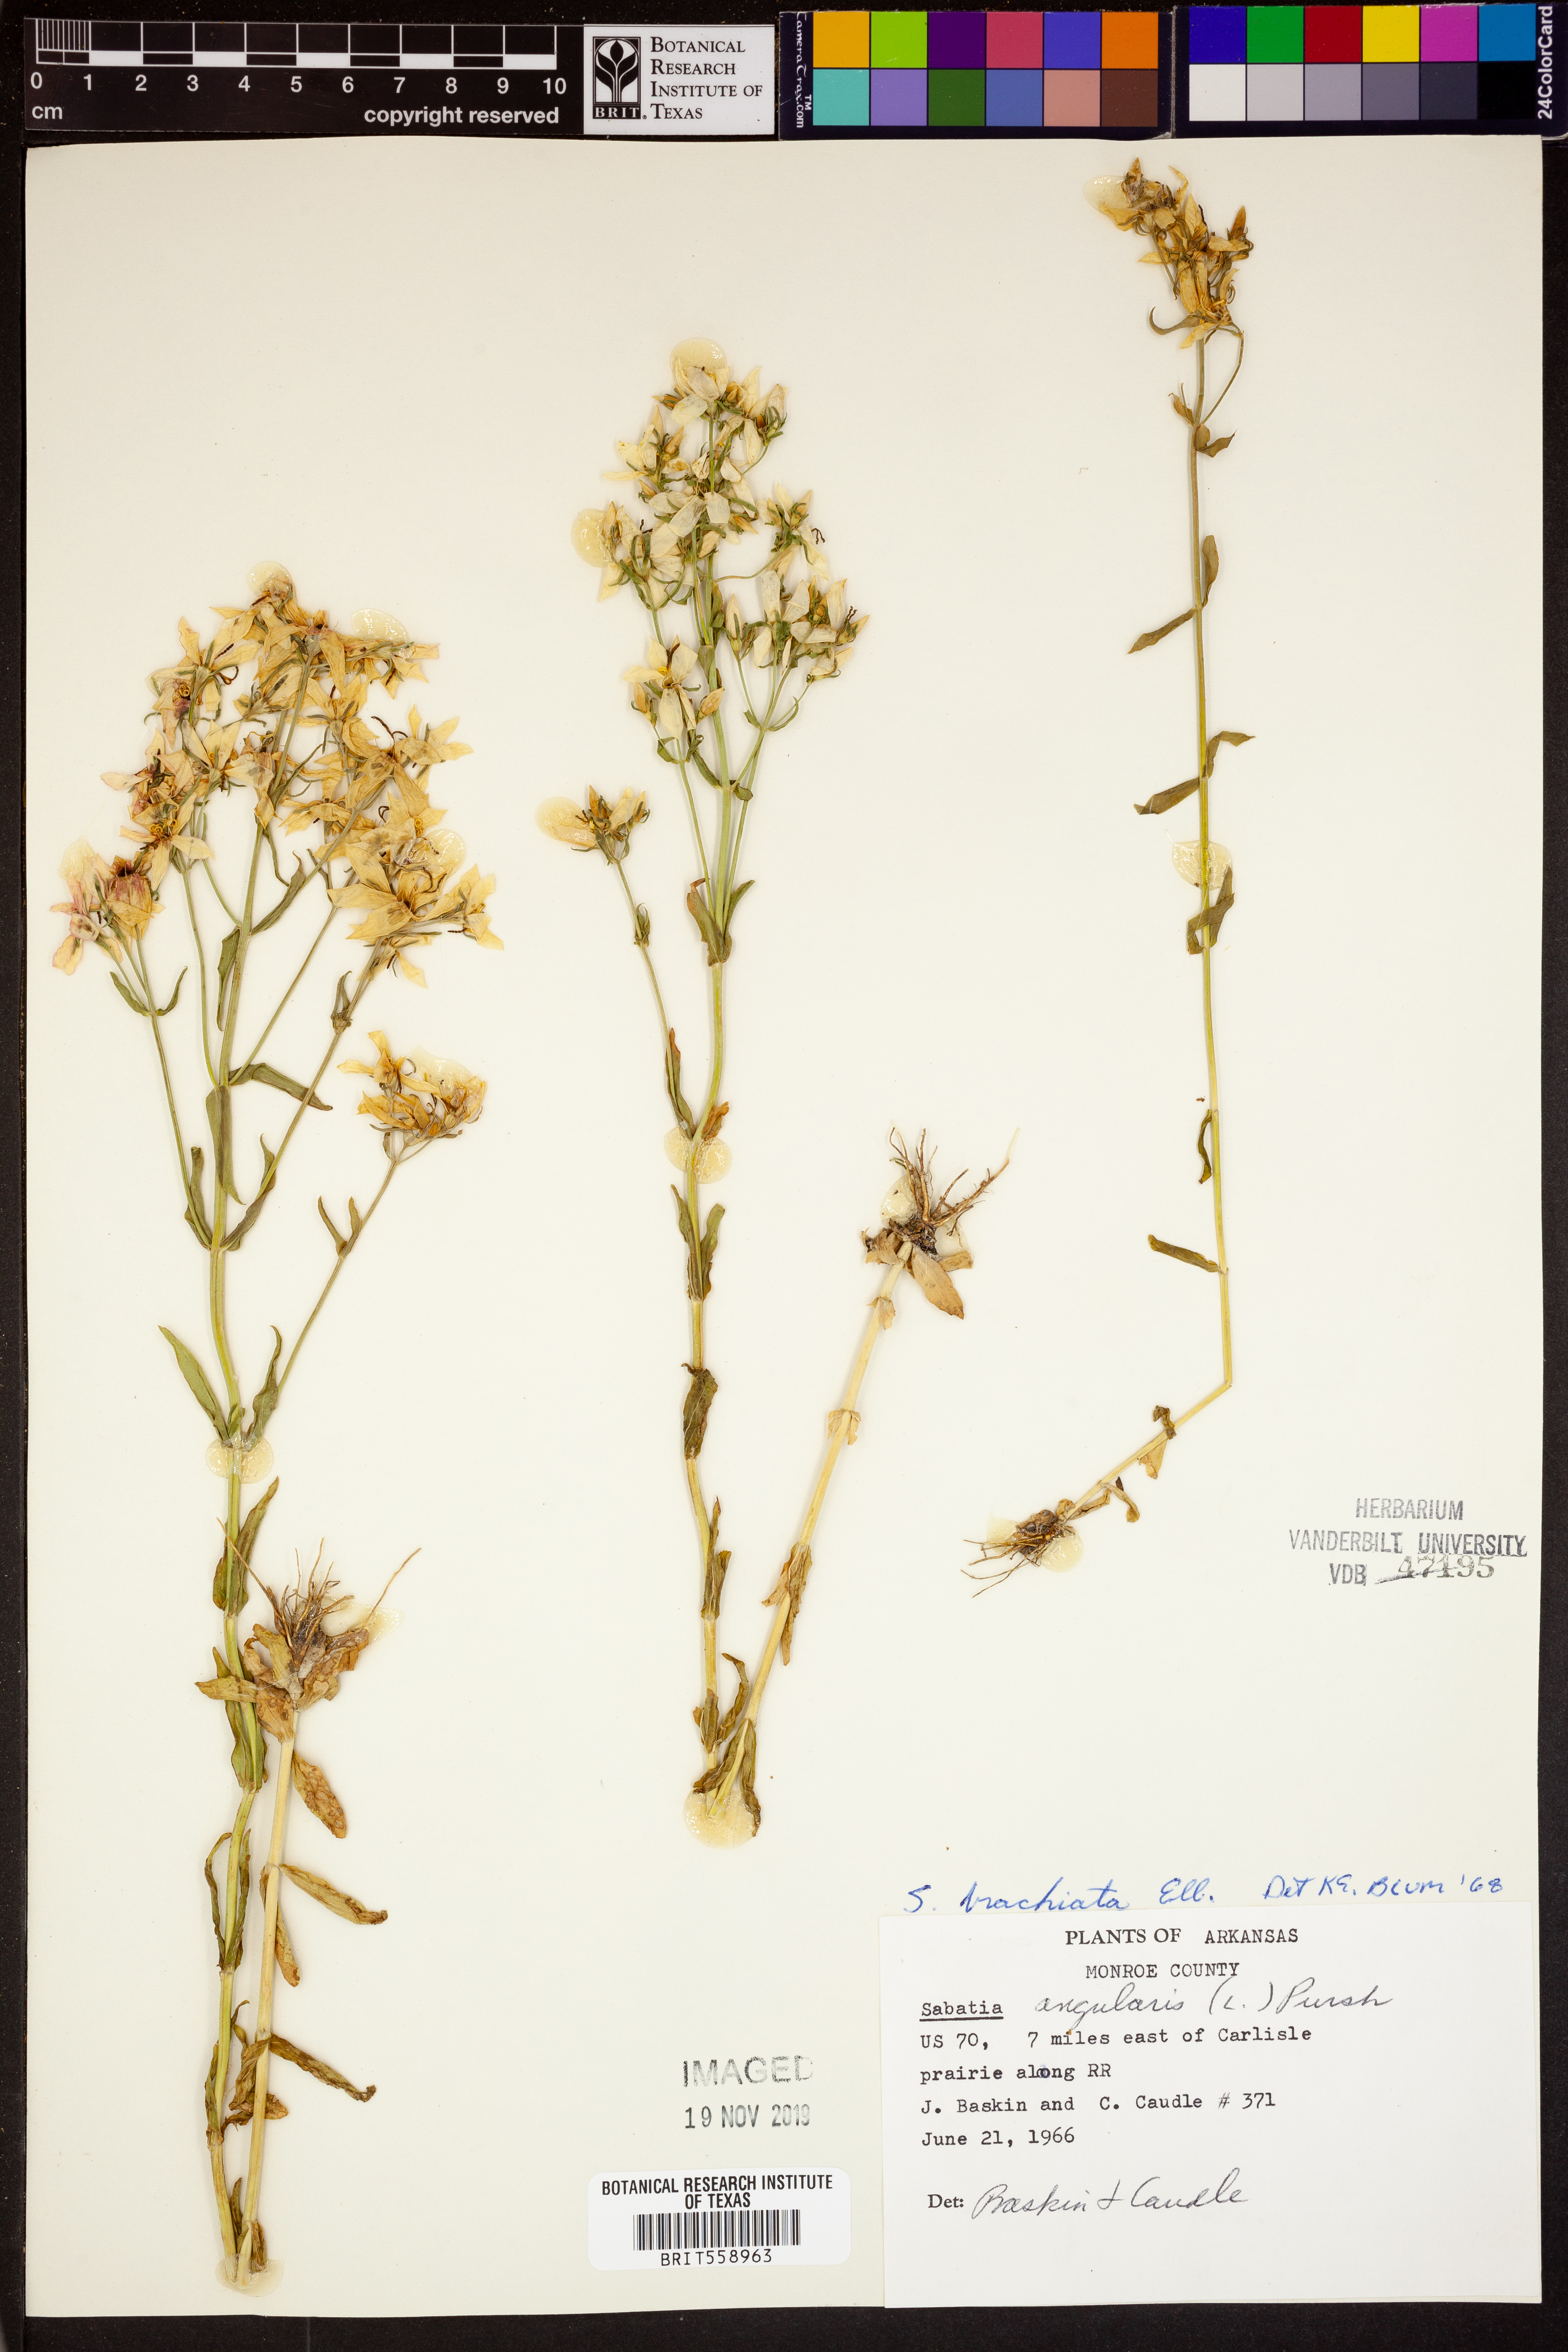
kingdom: Plantae
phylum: Tracheophyta
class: Magnoliopsida
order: Gentianales
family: Gentianaceae
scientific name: Gentianaceae
